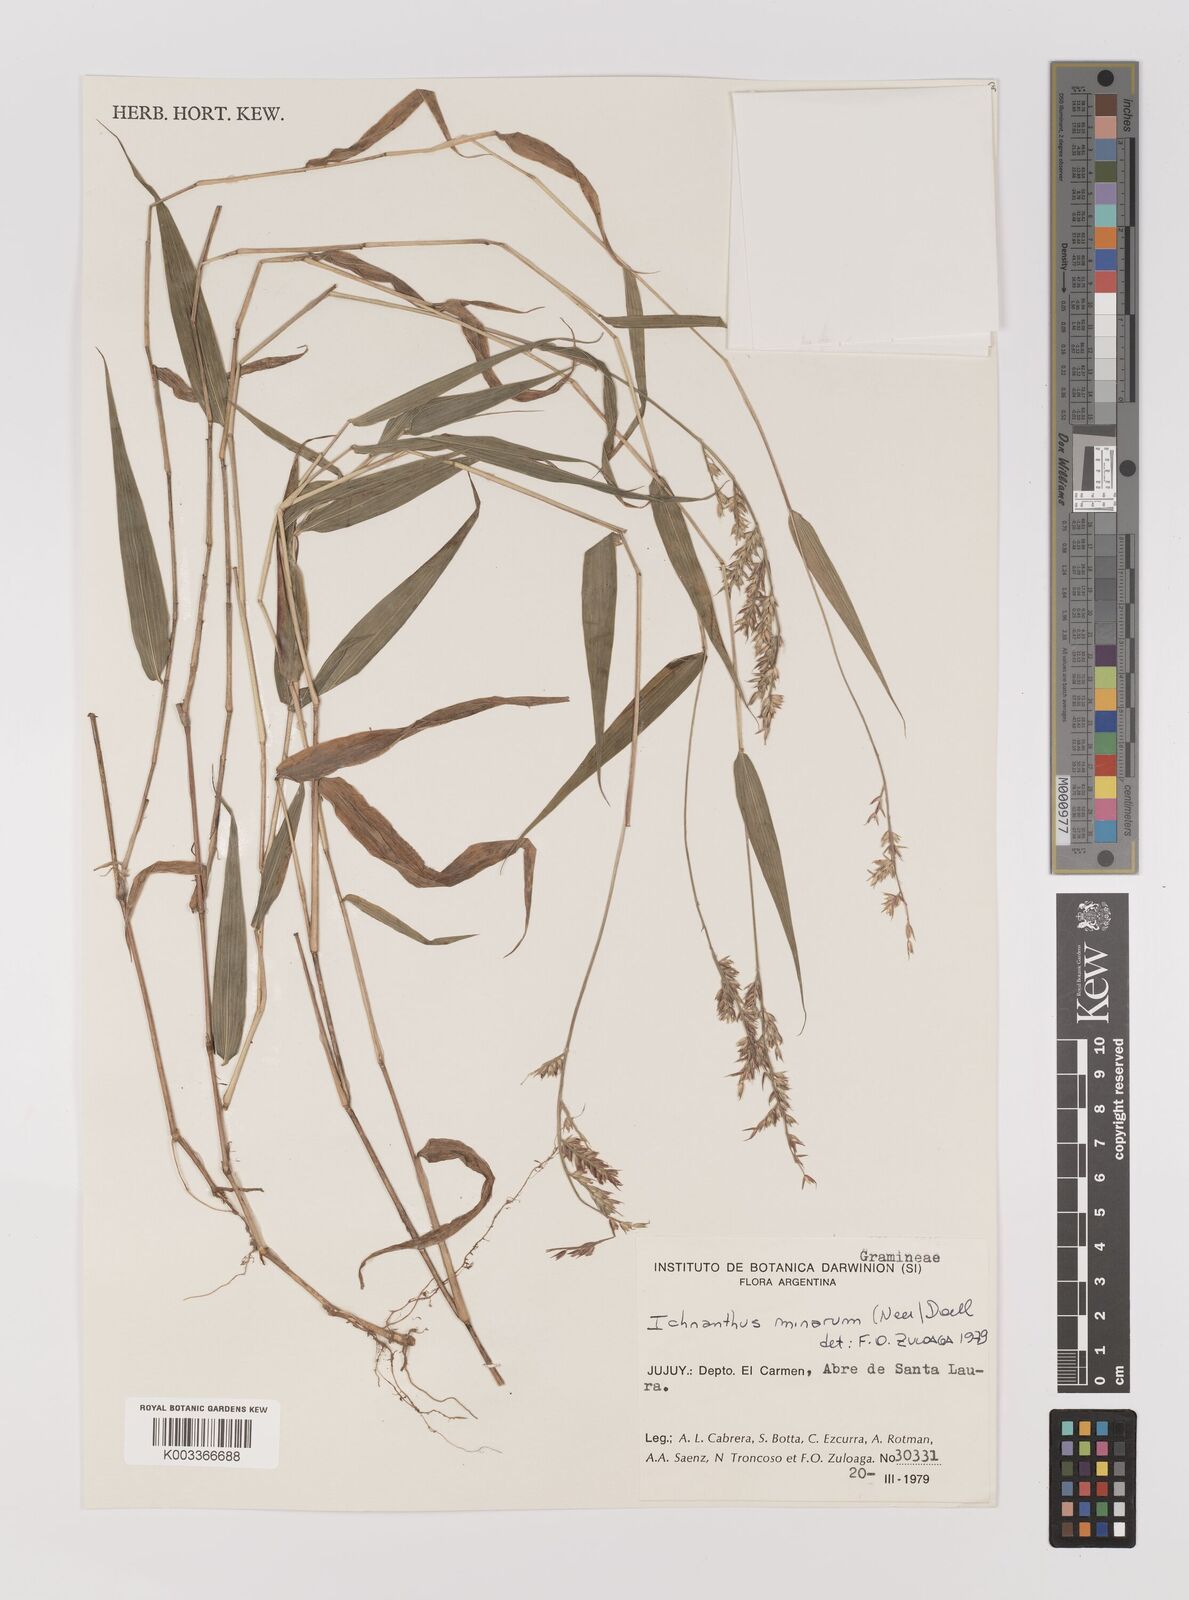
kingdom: Plantae
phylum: Tracheophyta
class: Liliopsida
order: Poales
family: Poaceae
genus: Oedochloa
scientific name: Oedochloa minarum
